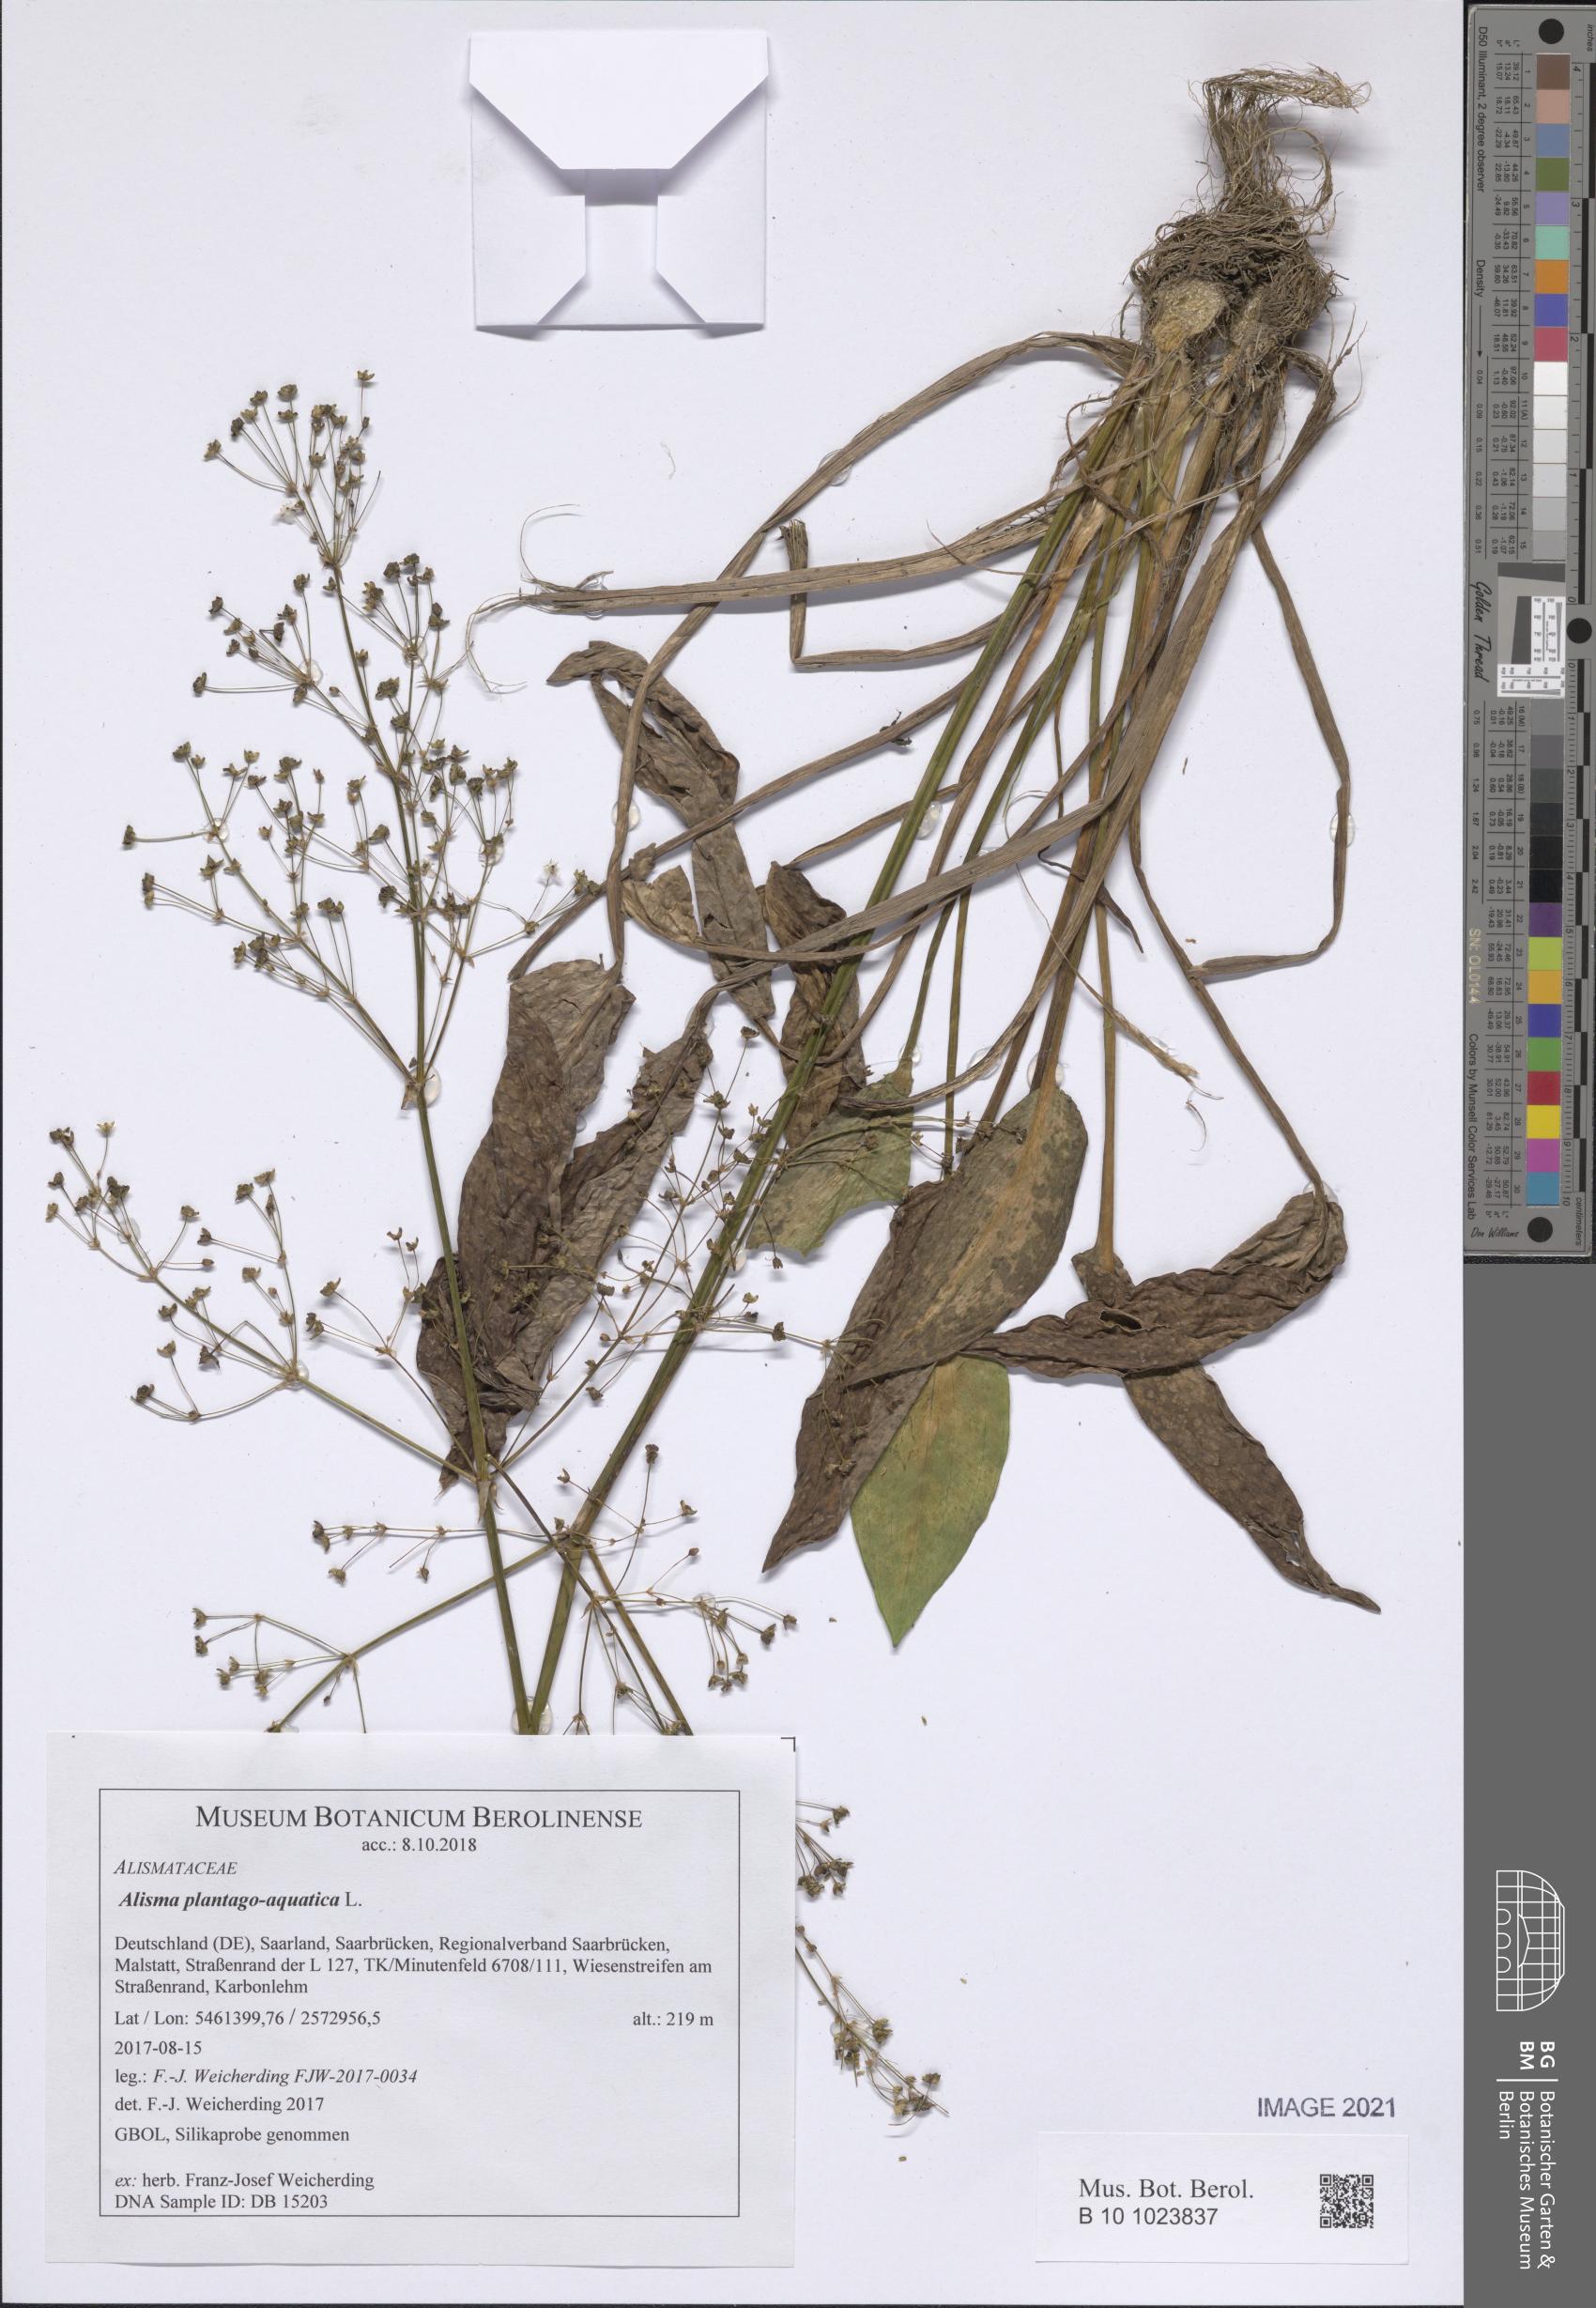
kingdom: Plantae
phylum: Tracheophyta
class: Liliopsida
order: Alismatales
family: Alismataceae
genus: Alisma
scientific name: Alisma plantago-aquatica
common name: Water-plantain
